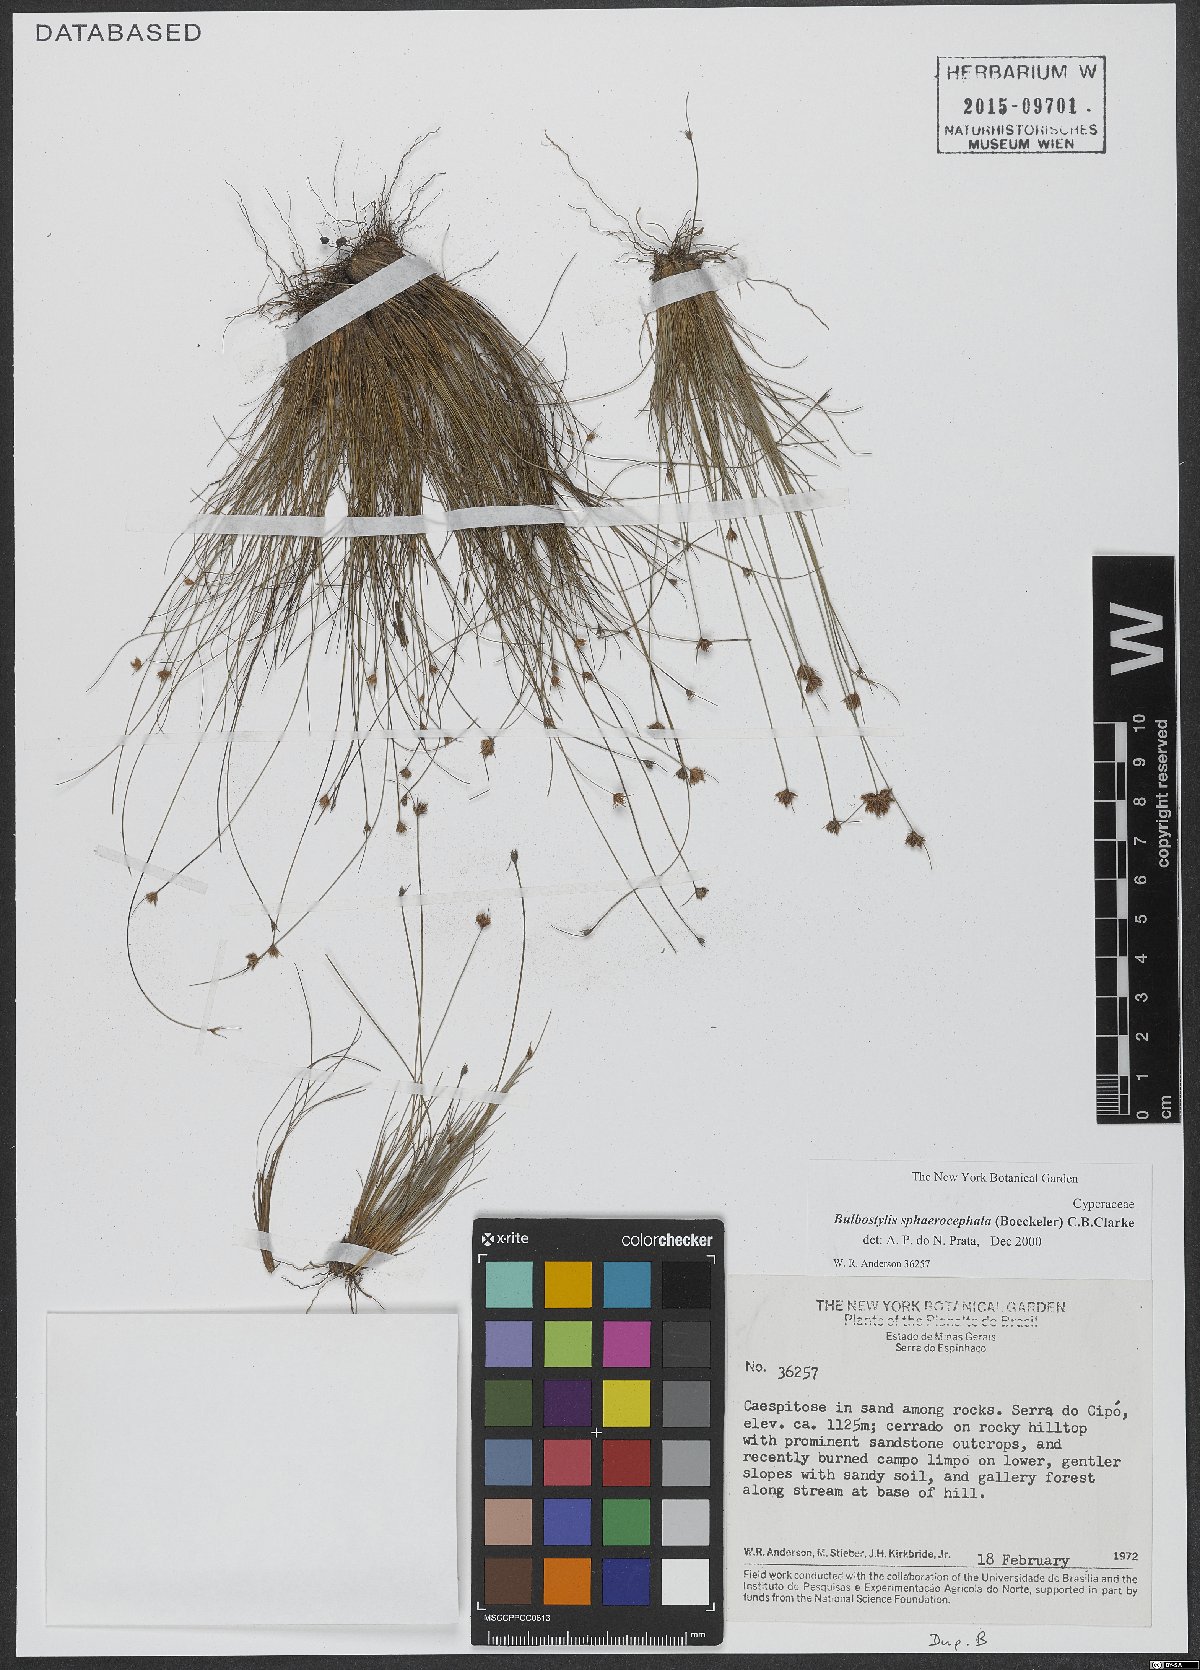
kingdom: Plantae
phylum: Tracheophyta
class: Liliopsida
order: Poales
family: Cyperaceae
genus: Bulbostylis
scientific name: Bulbostylis sphaerocephala
